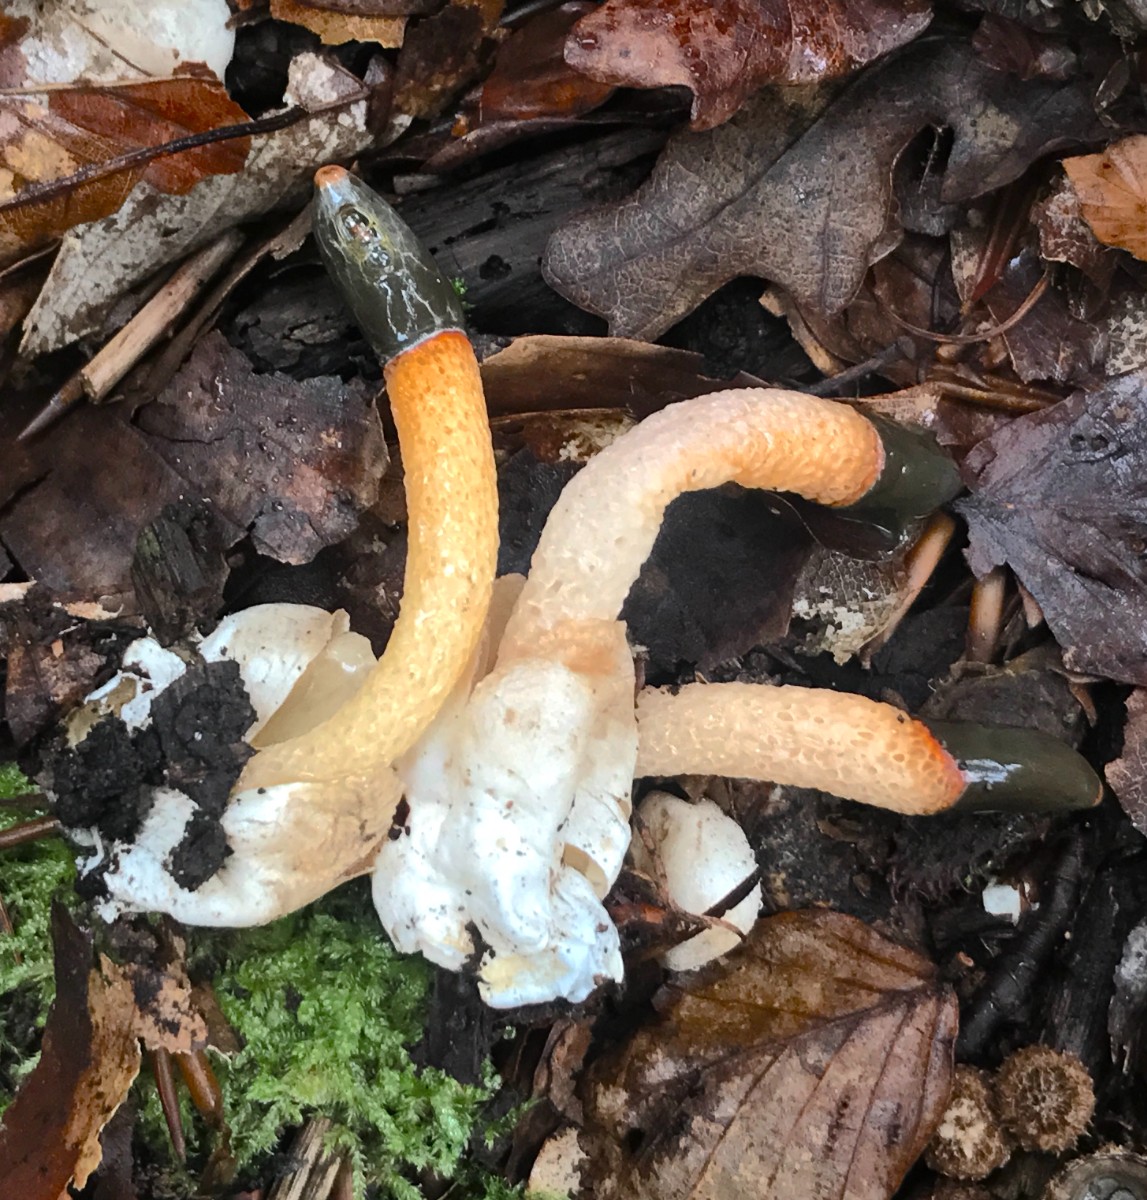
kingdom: Fungi
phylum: Basidiomycota
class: Agaricomycetes
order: Phallales
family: Phallaceae
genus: Mutinus
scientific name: Mutinus caninus
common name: hunde-stinksvamp
